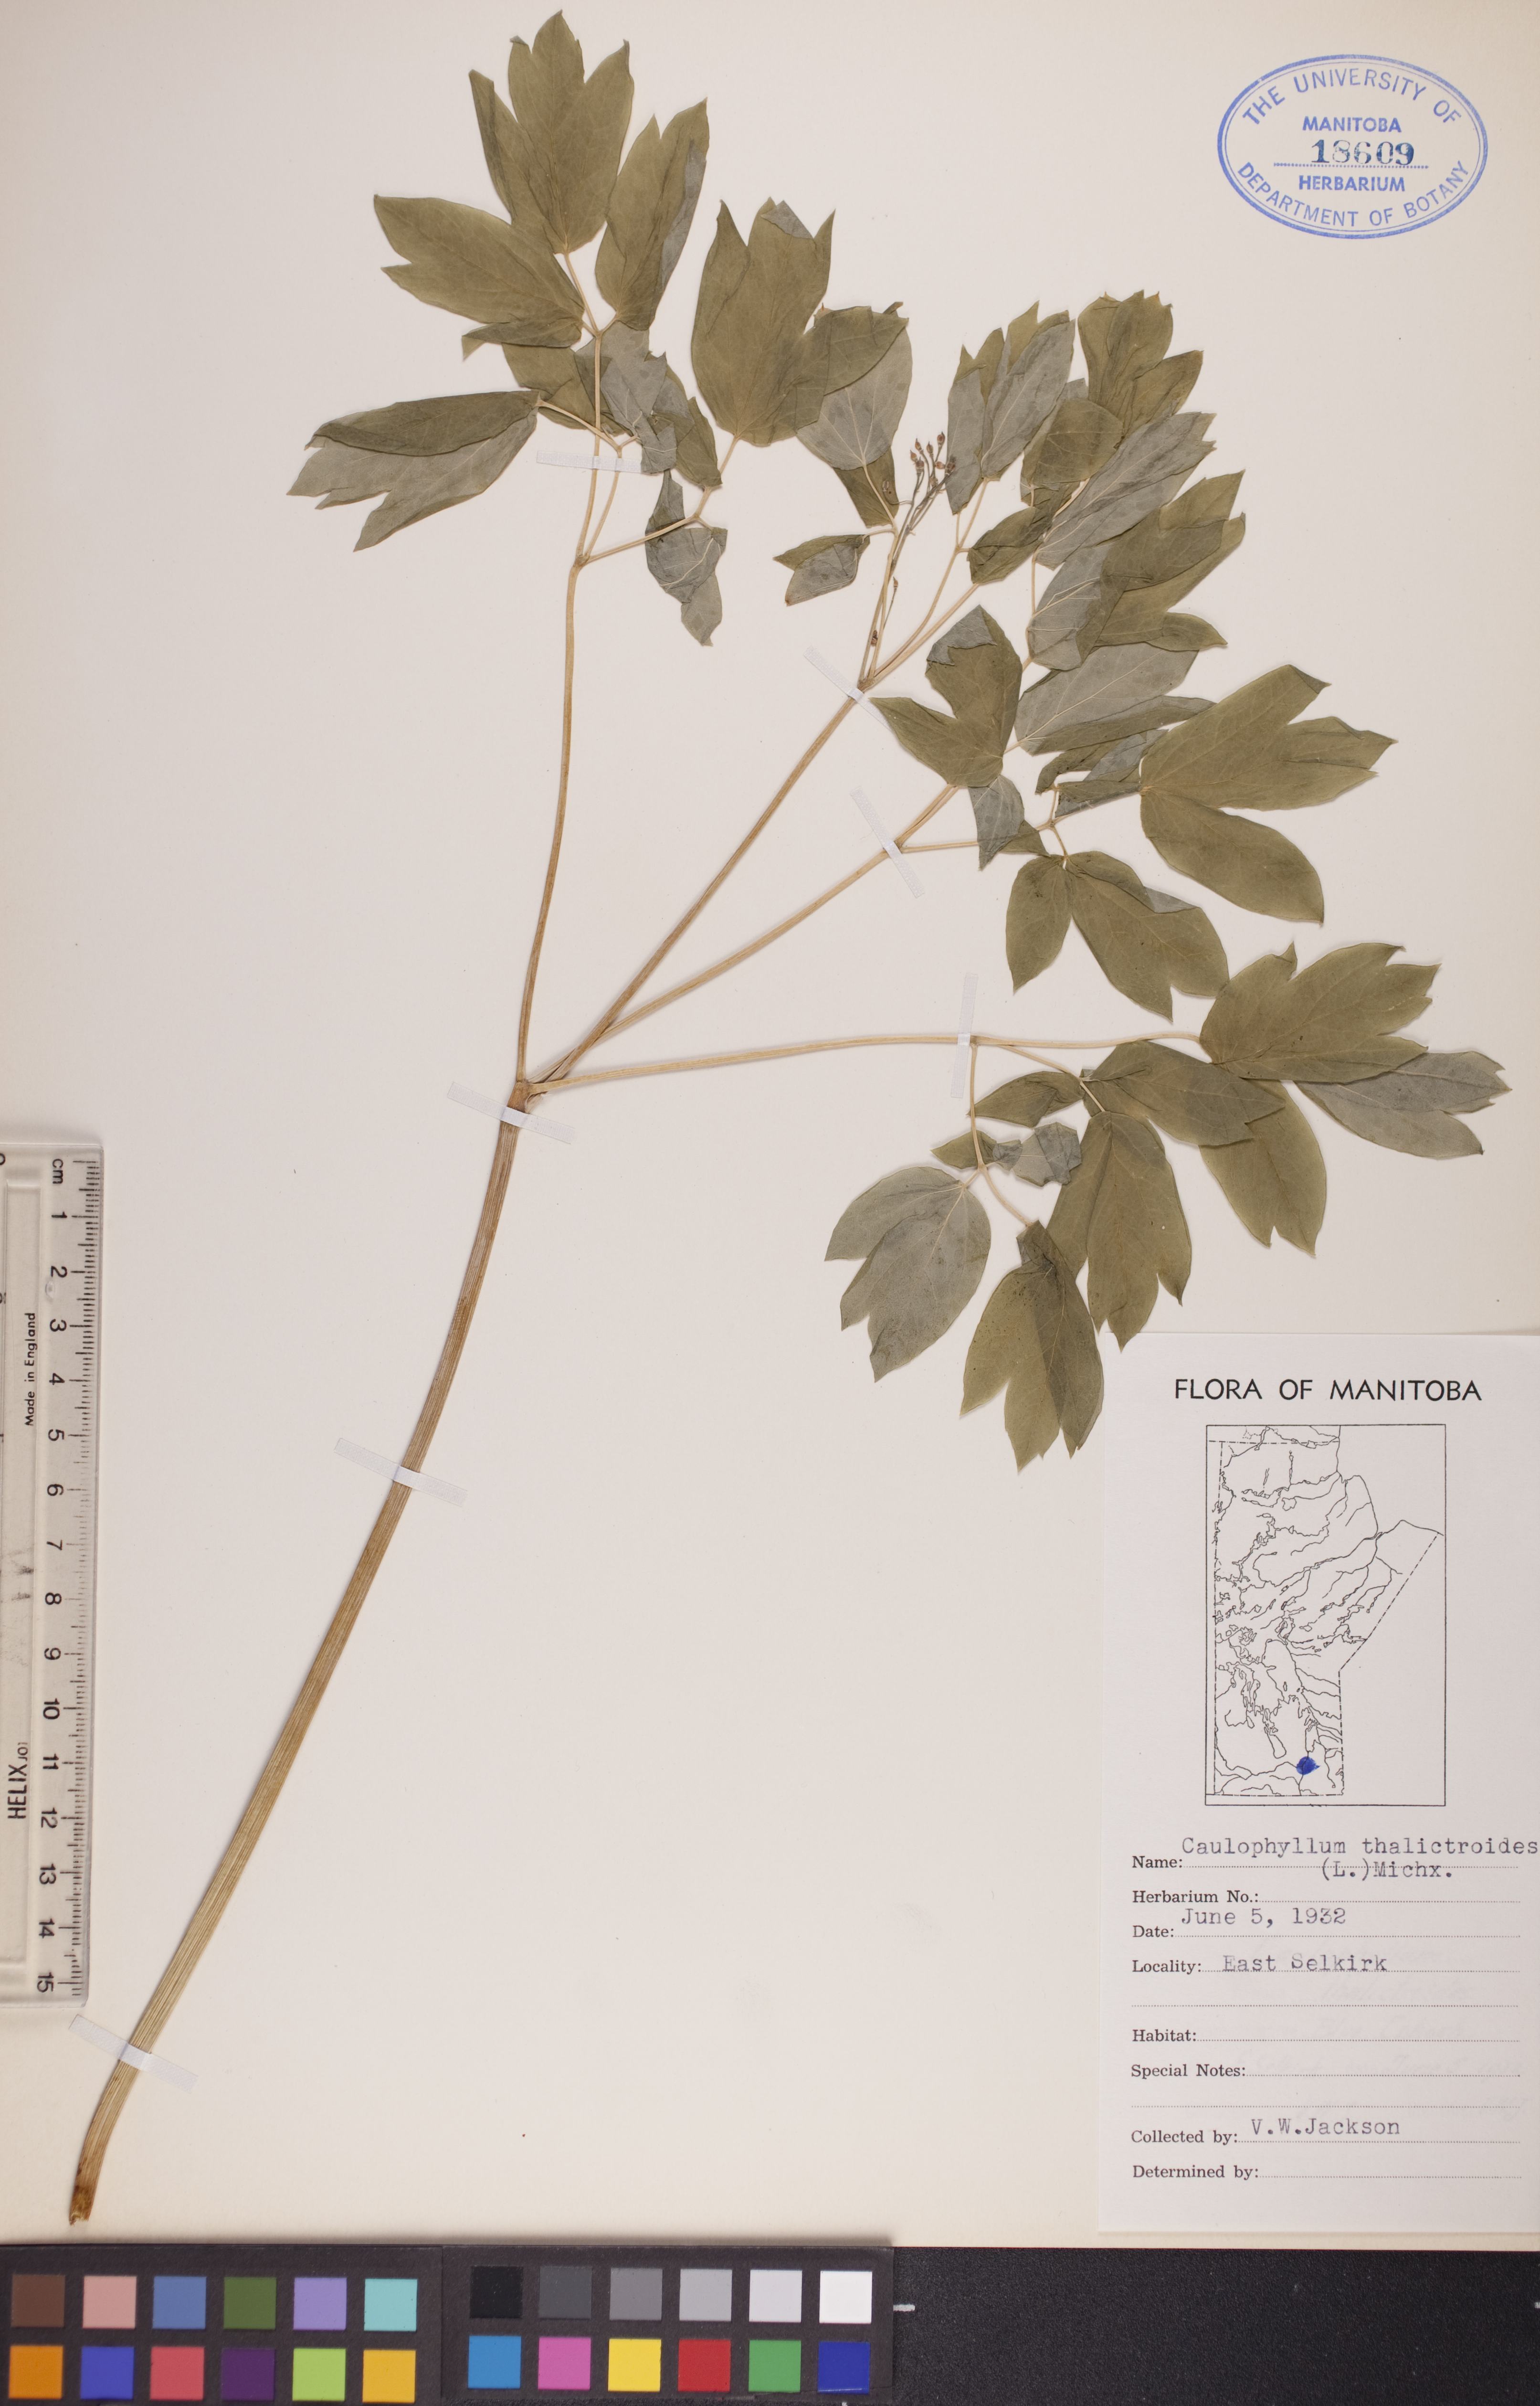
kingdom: Plantae
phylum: Tracheophyta
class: Magnoliopsida
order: Ranunculales
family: Berberidaceae
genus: Caulophyllum
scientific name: Caulophyllum thalictroides
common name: Blue cohosh
